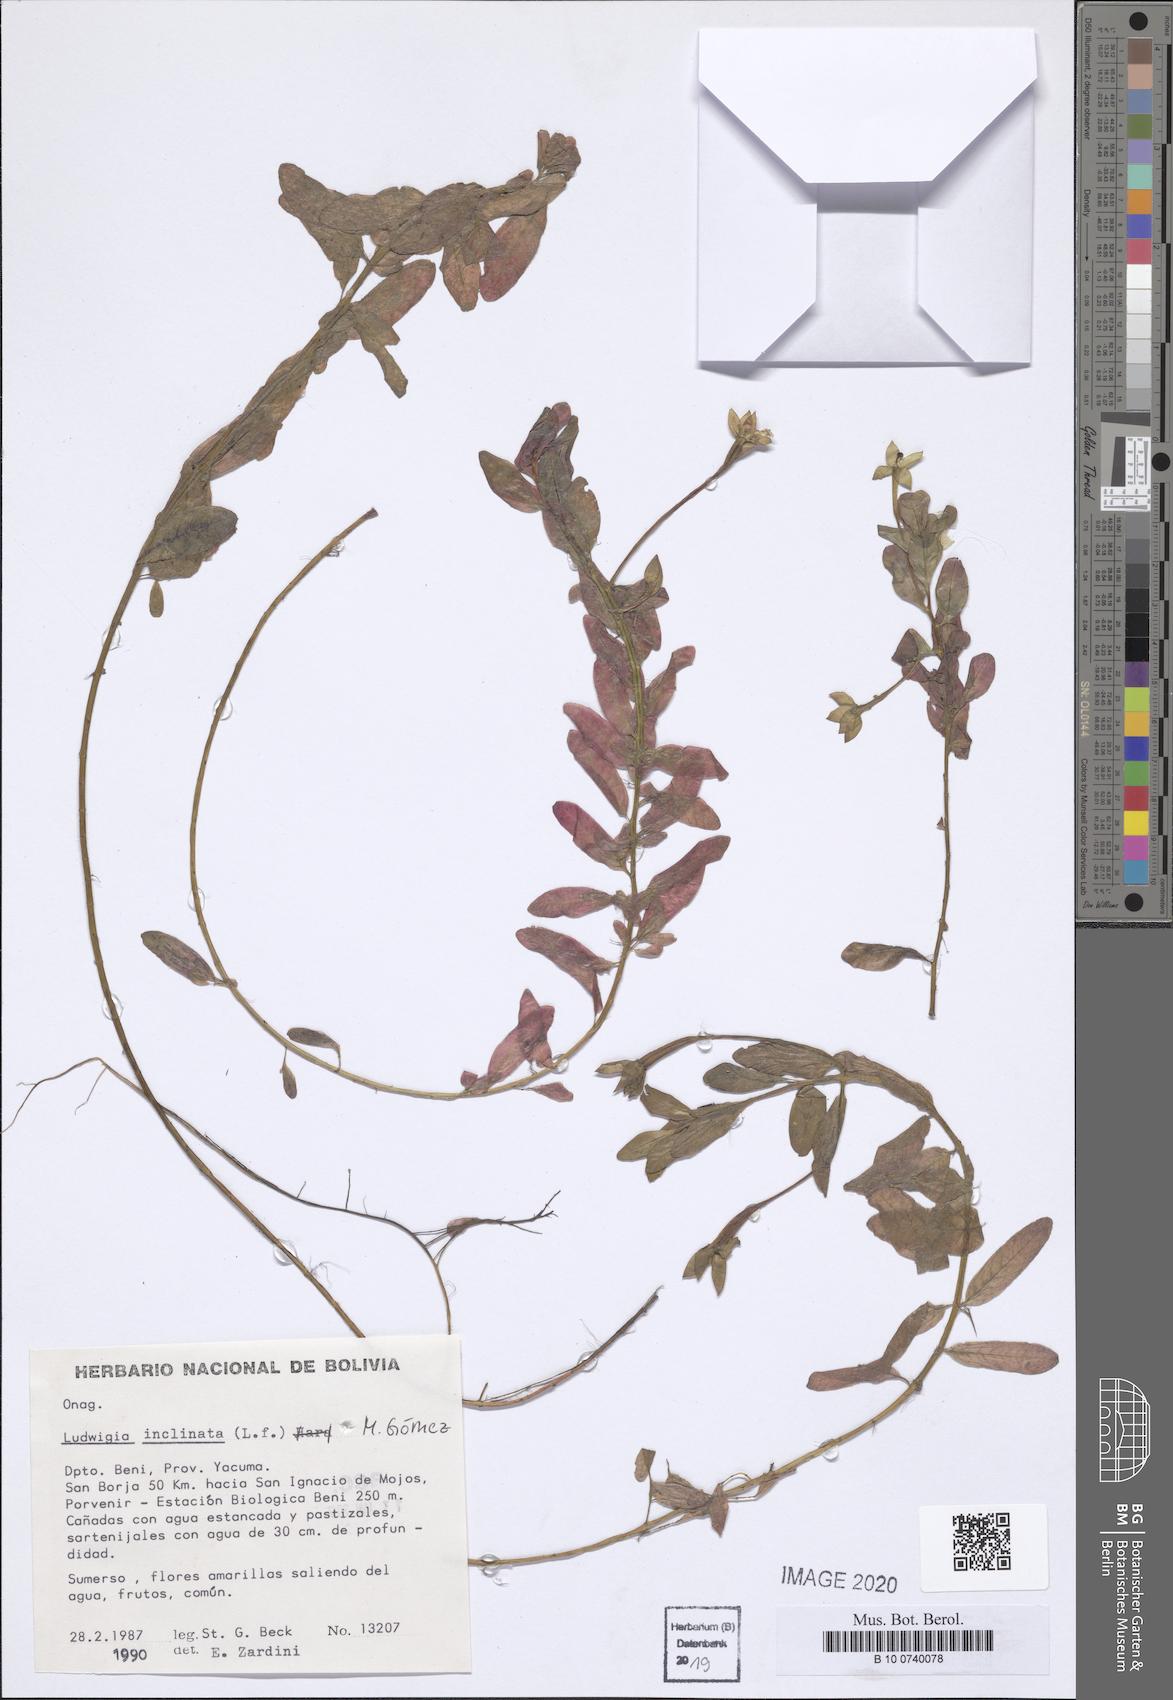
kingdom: Plantae
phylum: Tracheophyta
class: Magnoliopsida
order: Myrtales
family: Onagraceae
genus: Ludwigia
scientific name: Ludwigia inclinata
